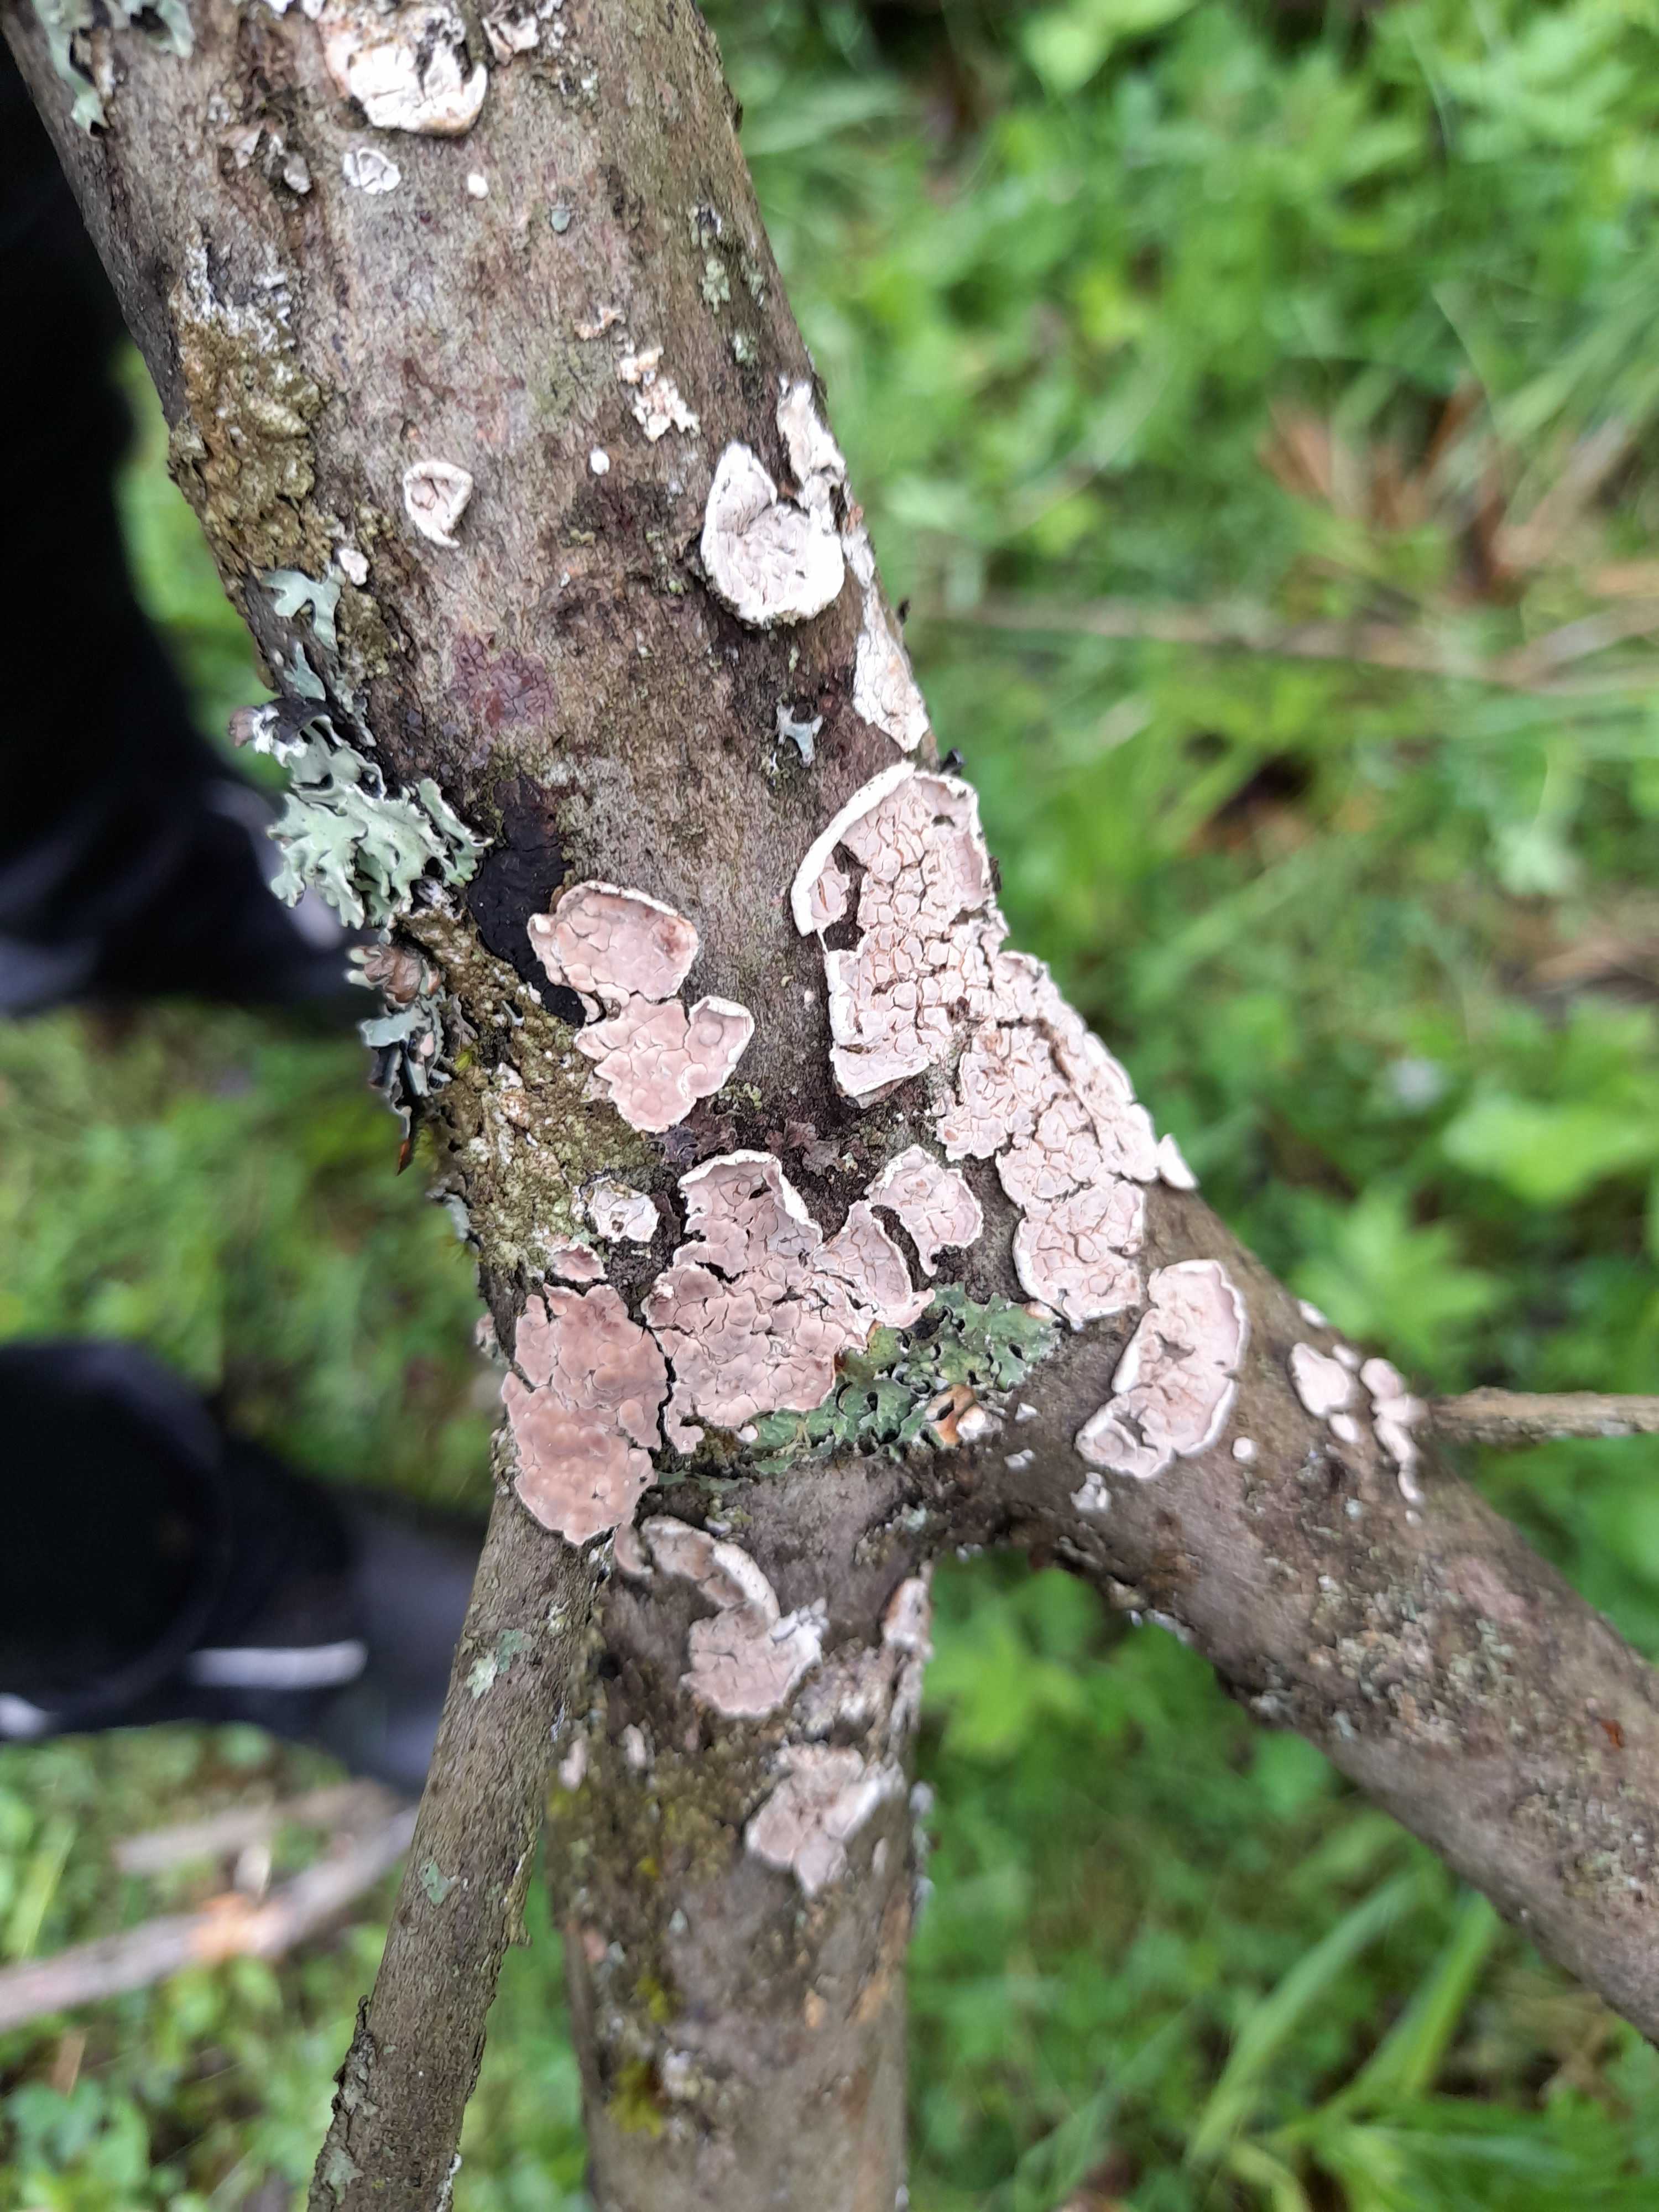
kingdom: Fungi
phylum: Basidiomycota
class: Agaricomycetes
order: Agaricales
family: Physalacriaceae
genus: Cylindrobasidium
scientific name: Cylindrobasidium evolvens
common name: sprækkehinde
